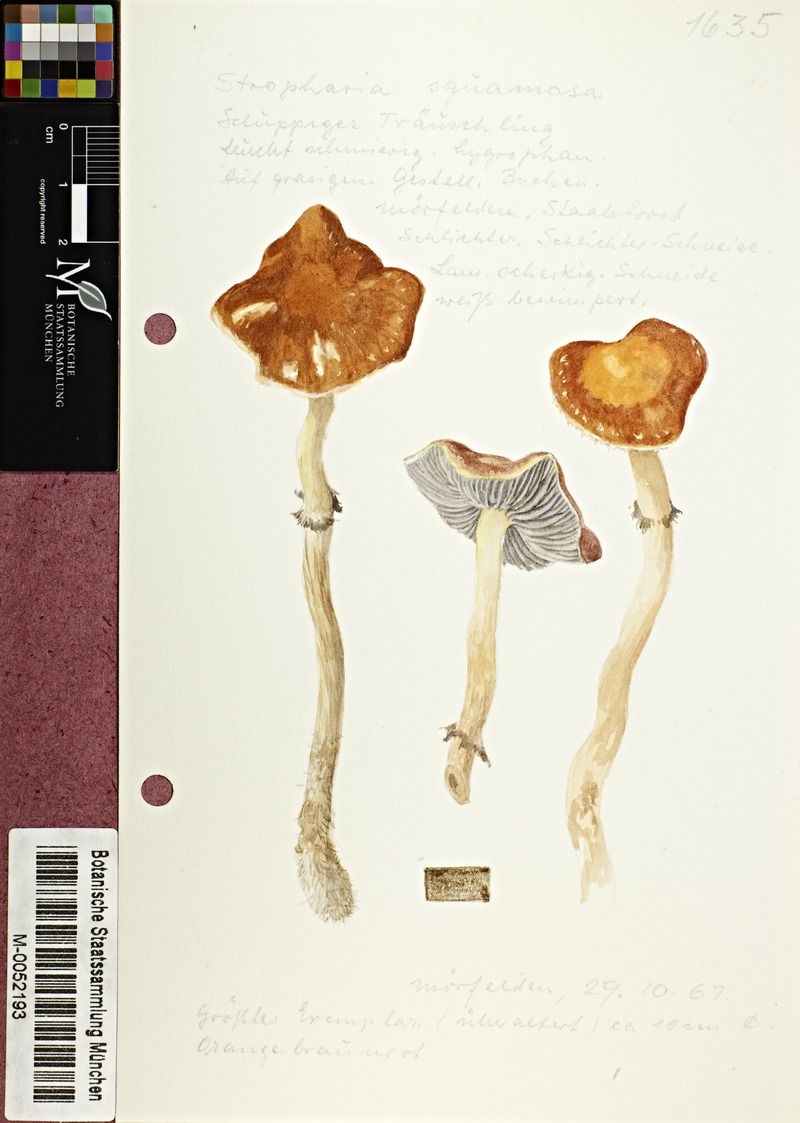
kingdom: Fungi
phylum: Basidiomycota
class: Agaricomycetes
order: Agaricales
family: Strophariaceae
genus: Leratiomyces
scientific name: Leratiomyces squamosus
